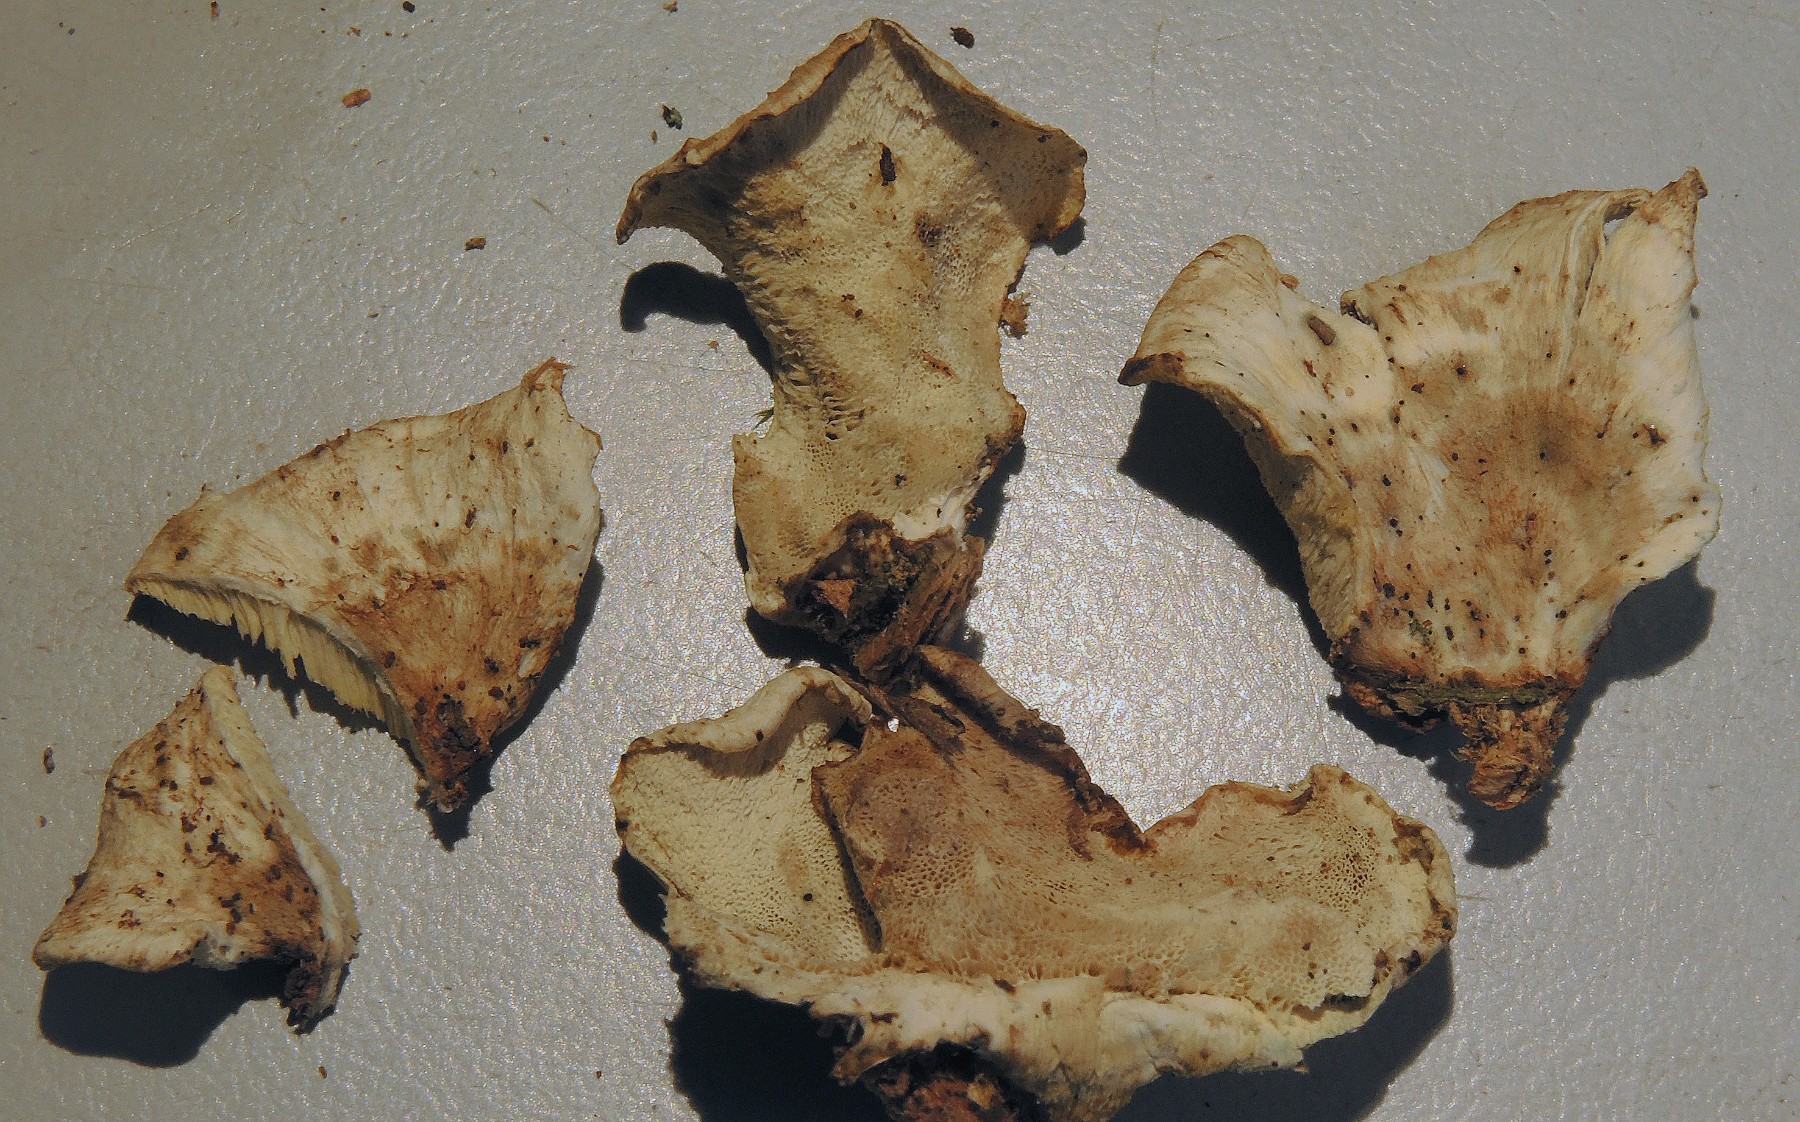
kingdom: Fungi
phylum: Basidiomycota
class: Agaricomycetes
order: Polyporales
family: Dacryobolaceae
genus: Oligoporus
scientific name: Oligoporus wakefieldiae
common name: række-kødporesvamp
